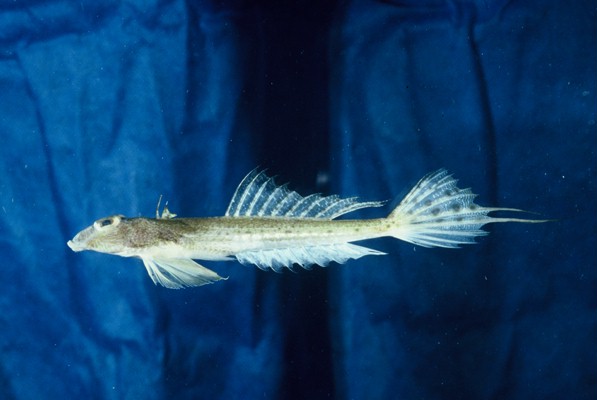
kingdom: Animalia
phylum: Chordata
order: Perciformes
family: Callionymidae
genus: Callionymus
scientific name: Callionymus filamentosus
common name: Blotchfin dragonet
